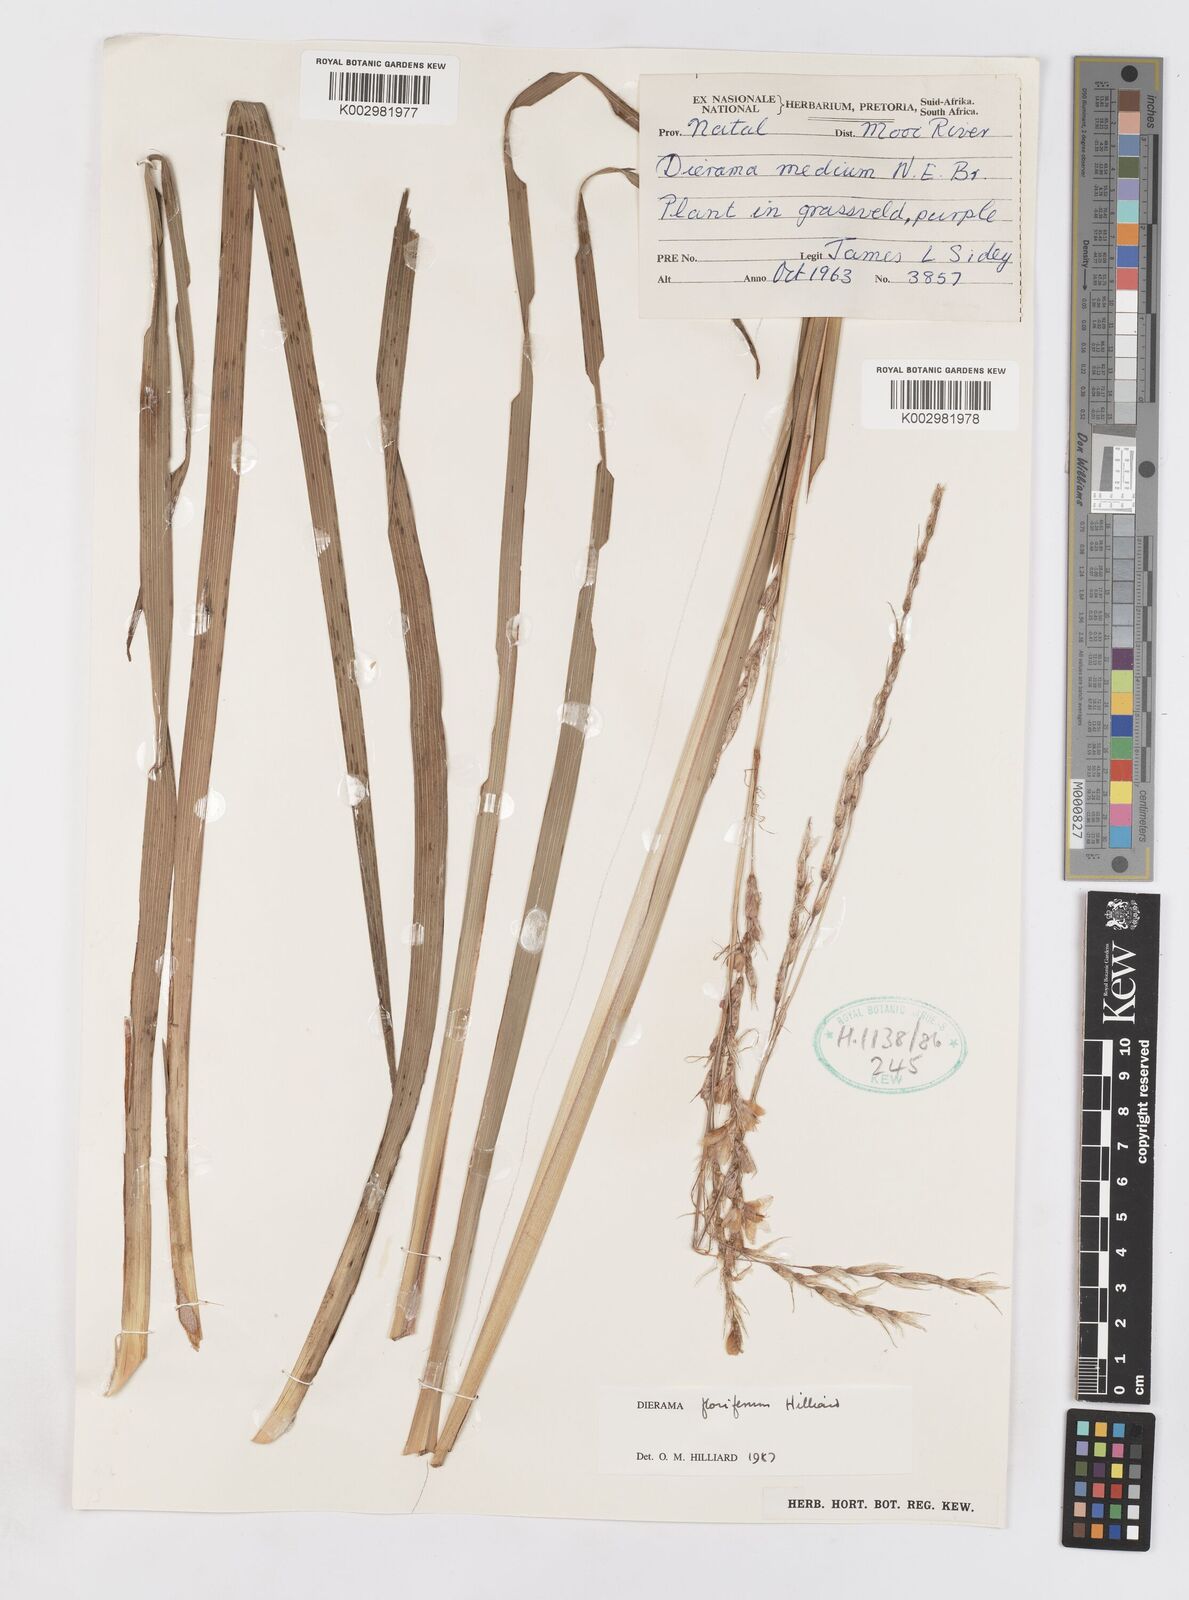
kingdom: Plantae
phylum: Tracheophyta
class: Liliopsida
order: Asparagales
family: Iridaceae
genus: Dierama
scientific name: Dierama floriferum
